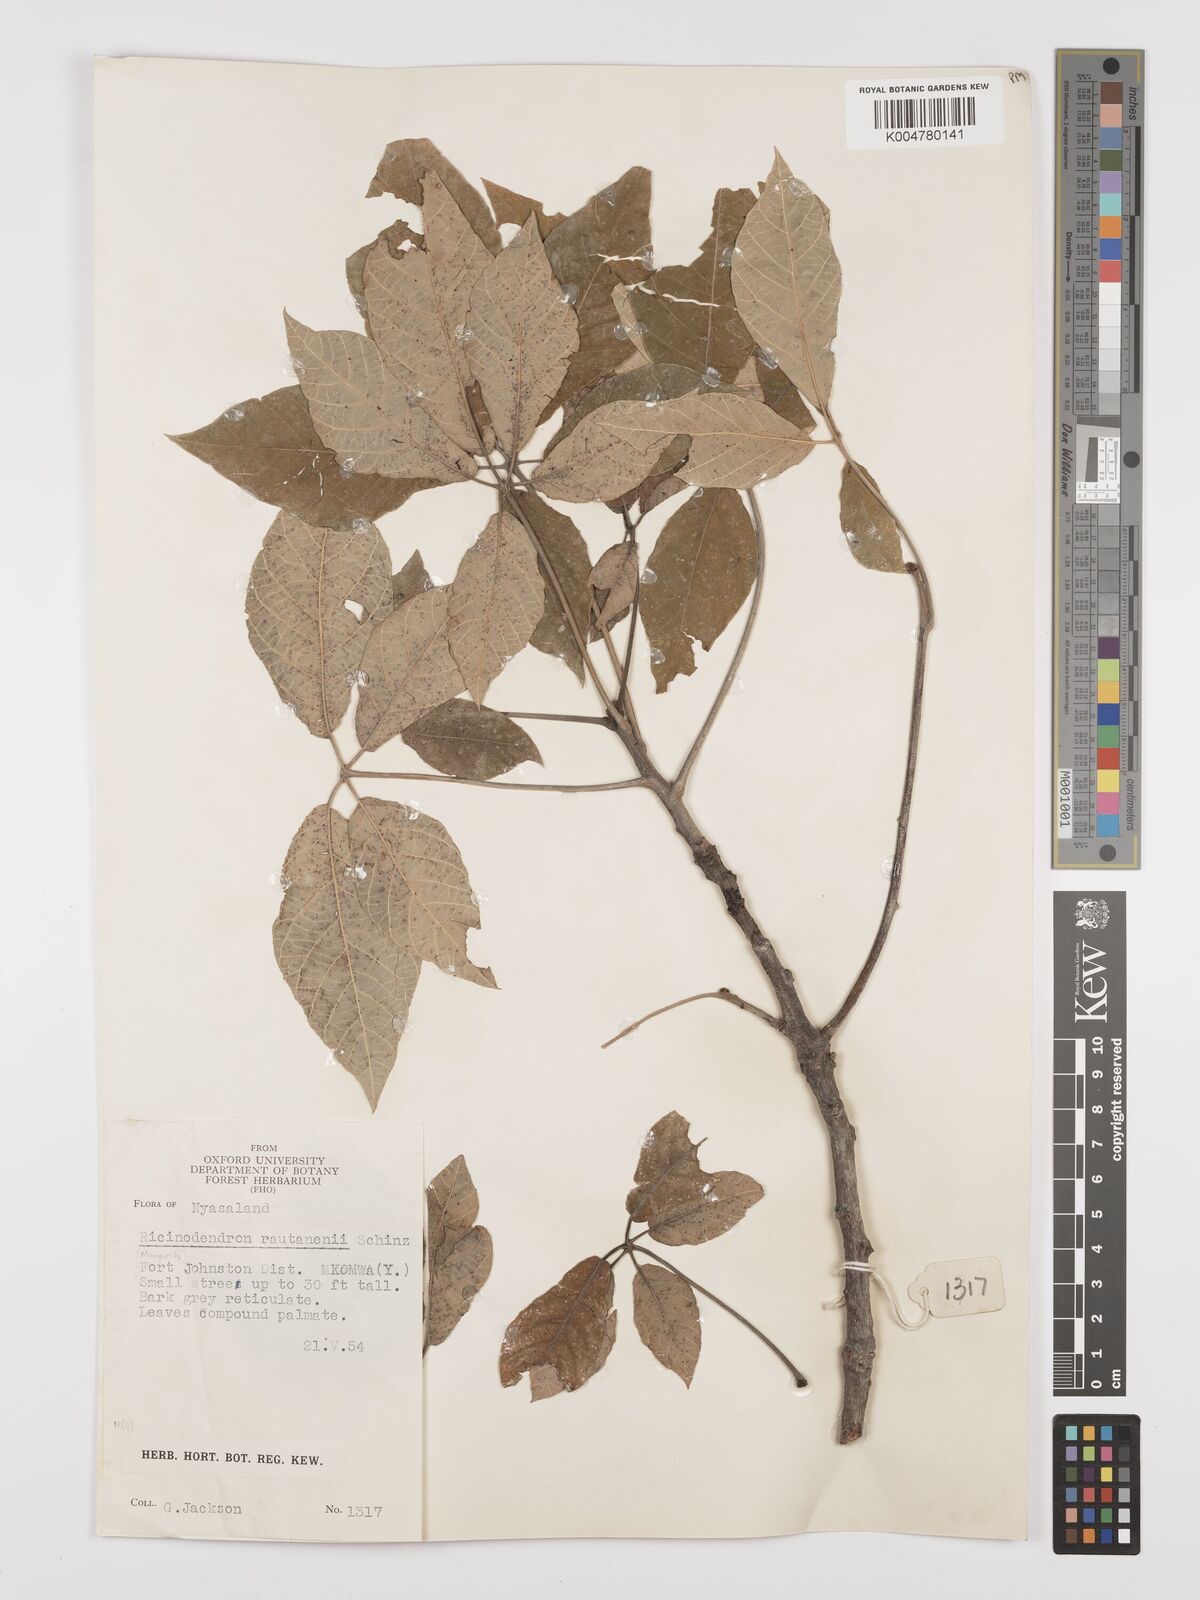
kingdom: Plantae
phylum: Tracheophyta
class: Magnoliopsida
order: Malpighiales
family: Euphorbiaceae
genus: Schinziophyton
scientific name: Schinziophyton rautanenii
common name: Manketti
